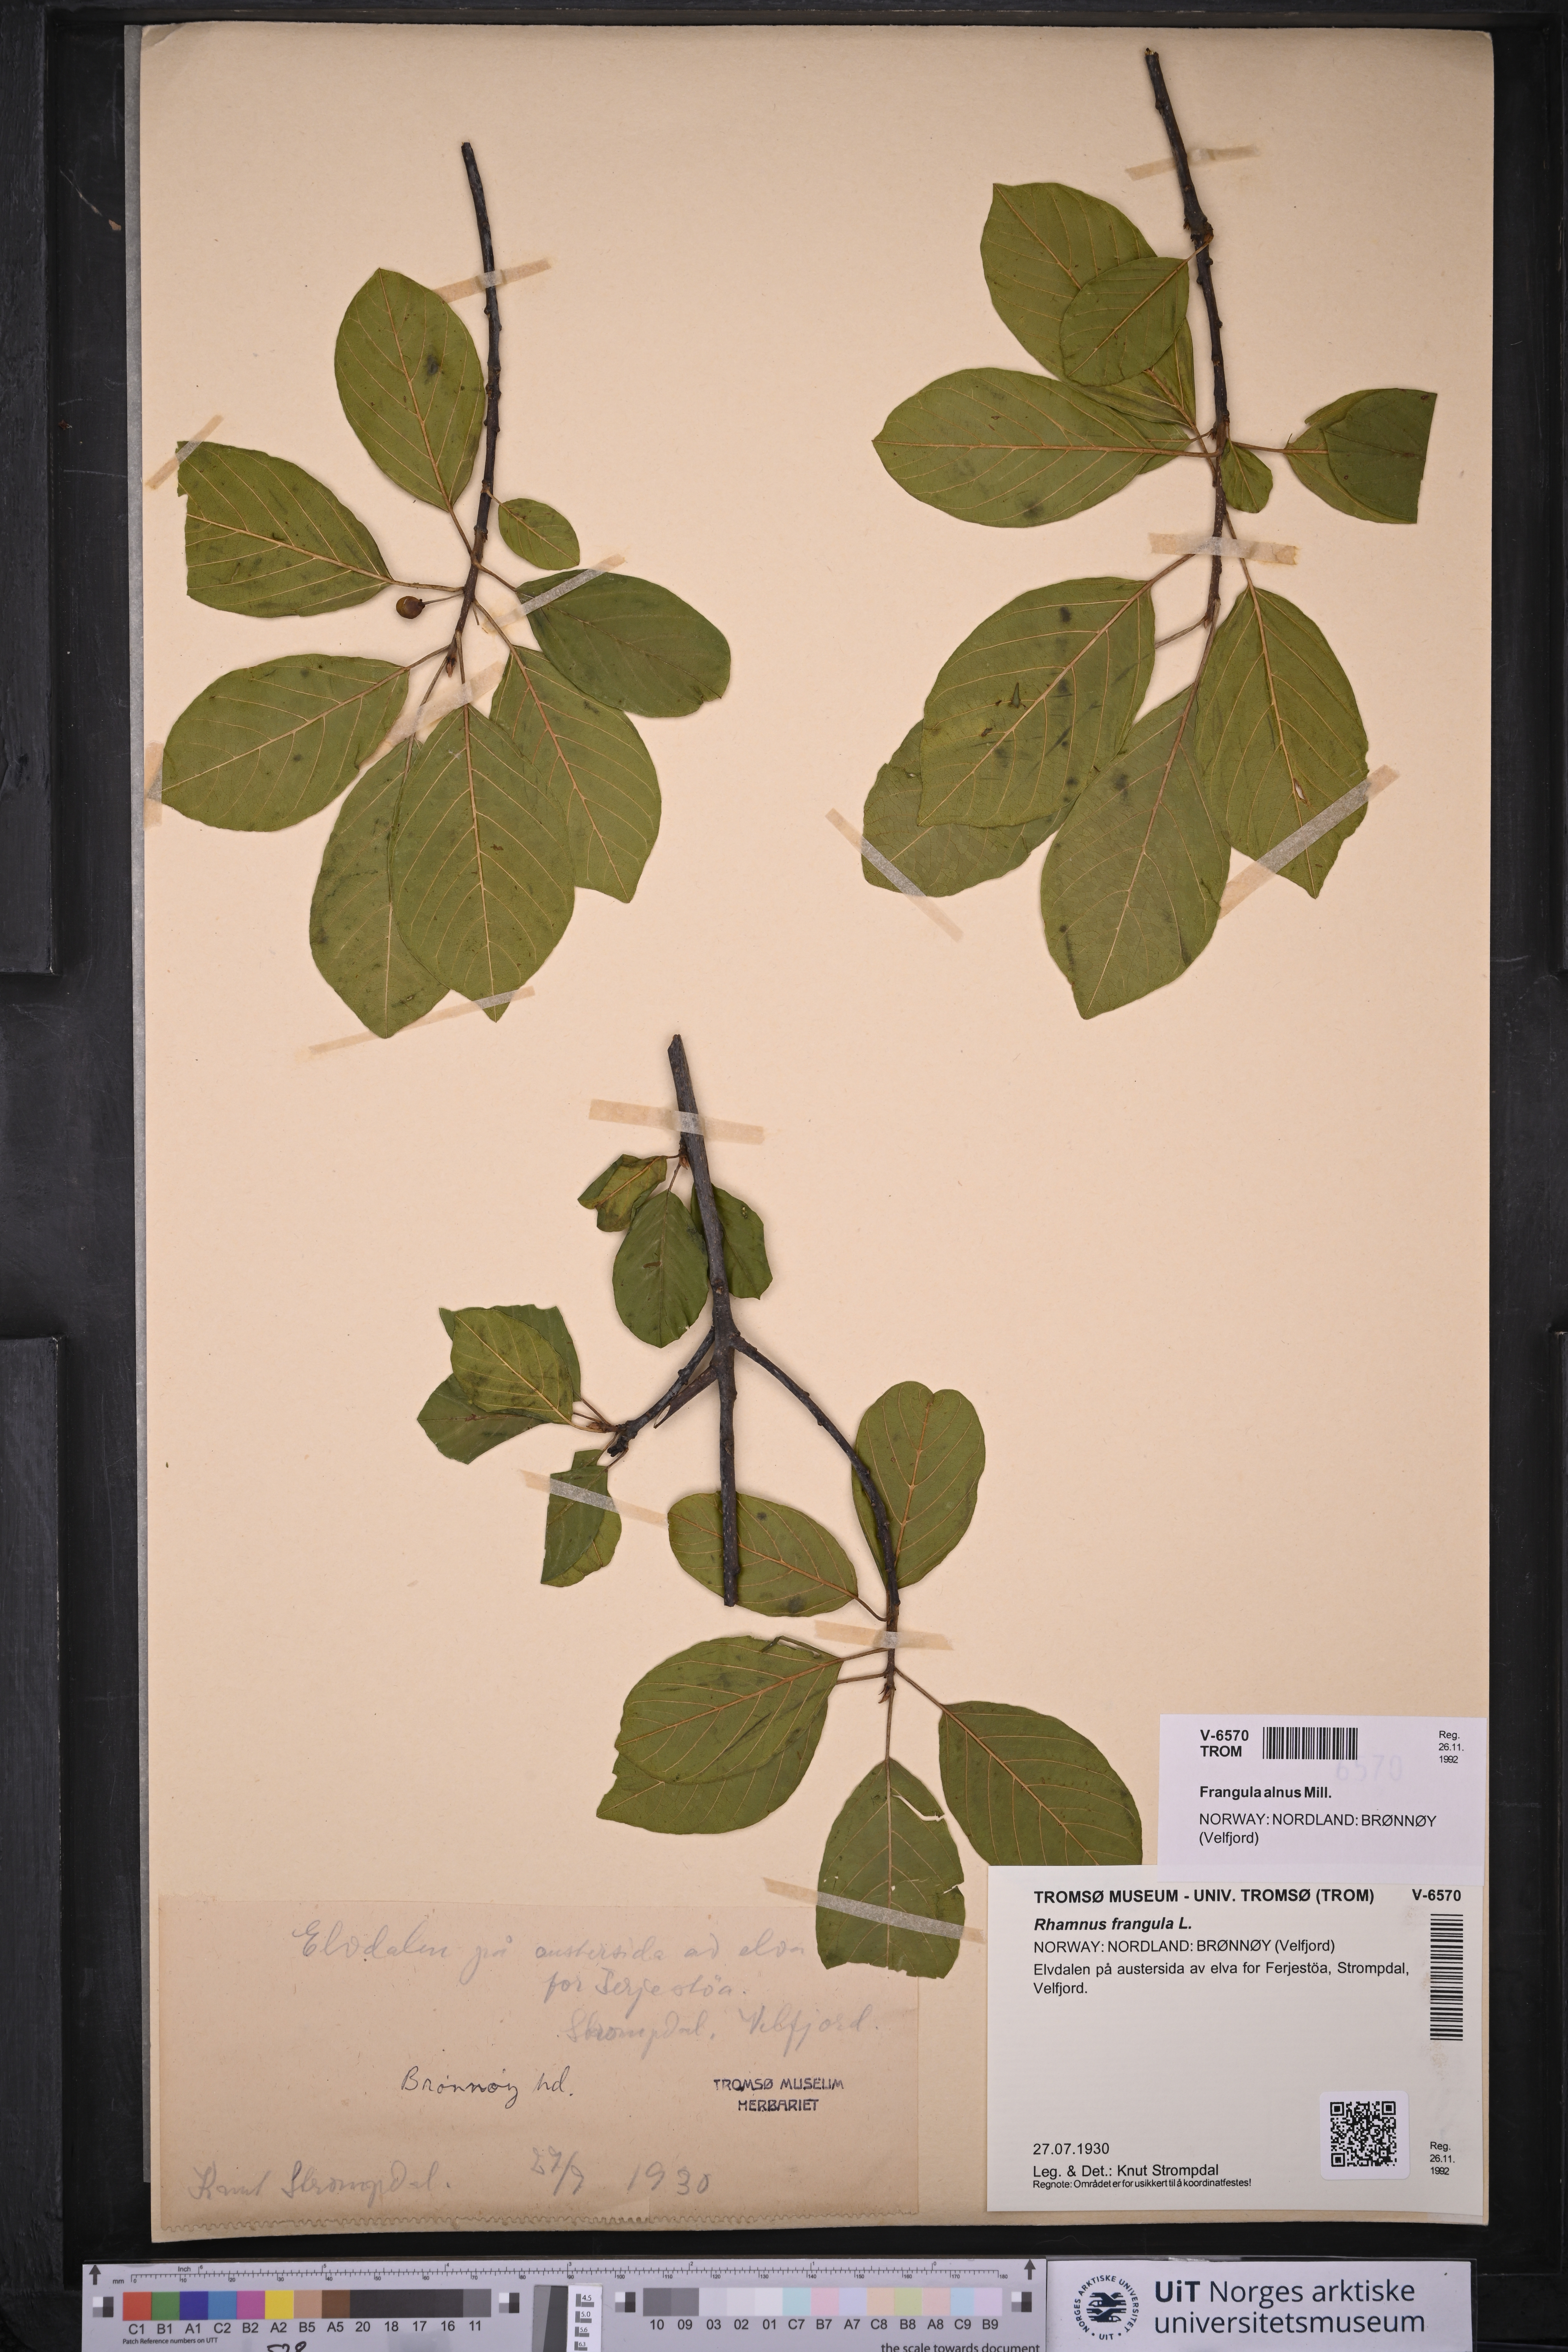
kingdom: Plantae
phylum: Tracheophyta
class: Magnoliopsida
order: Rosales
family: Rhamnaceae
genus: Frangula
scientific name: Frangula alnus
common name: Alder buckthorn
